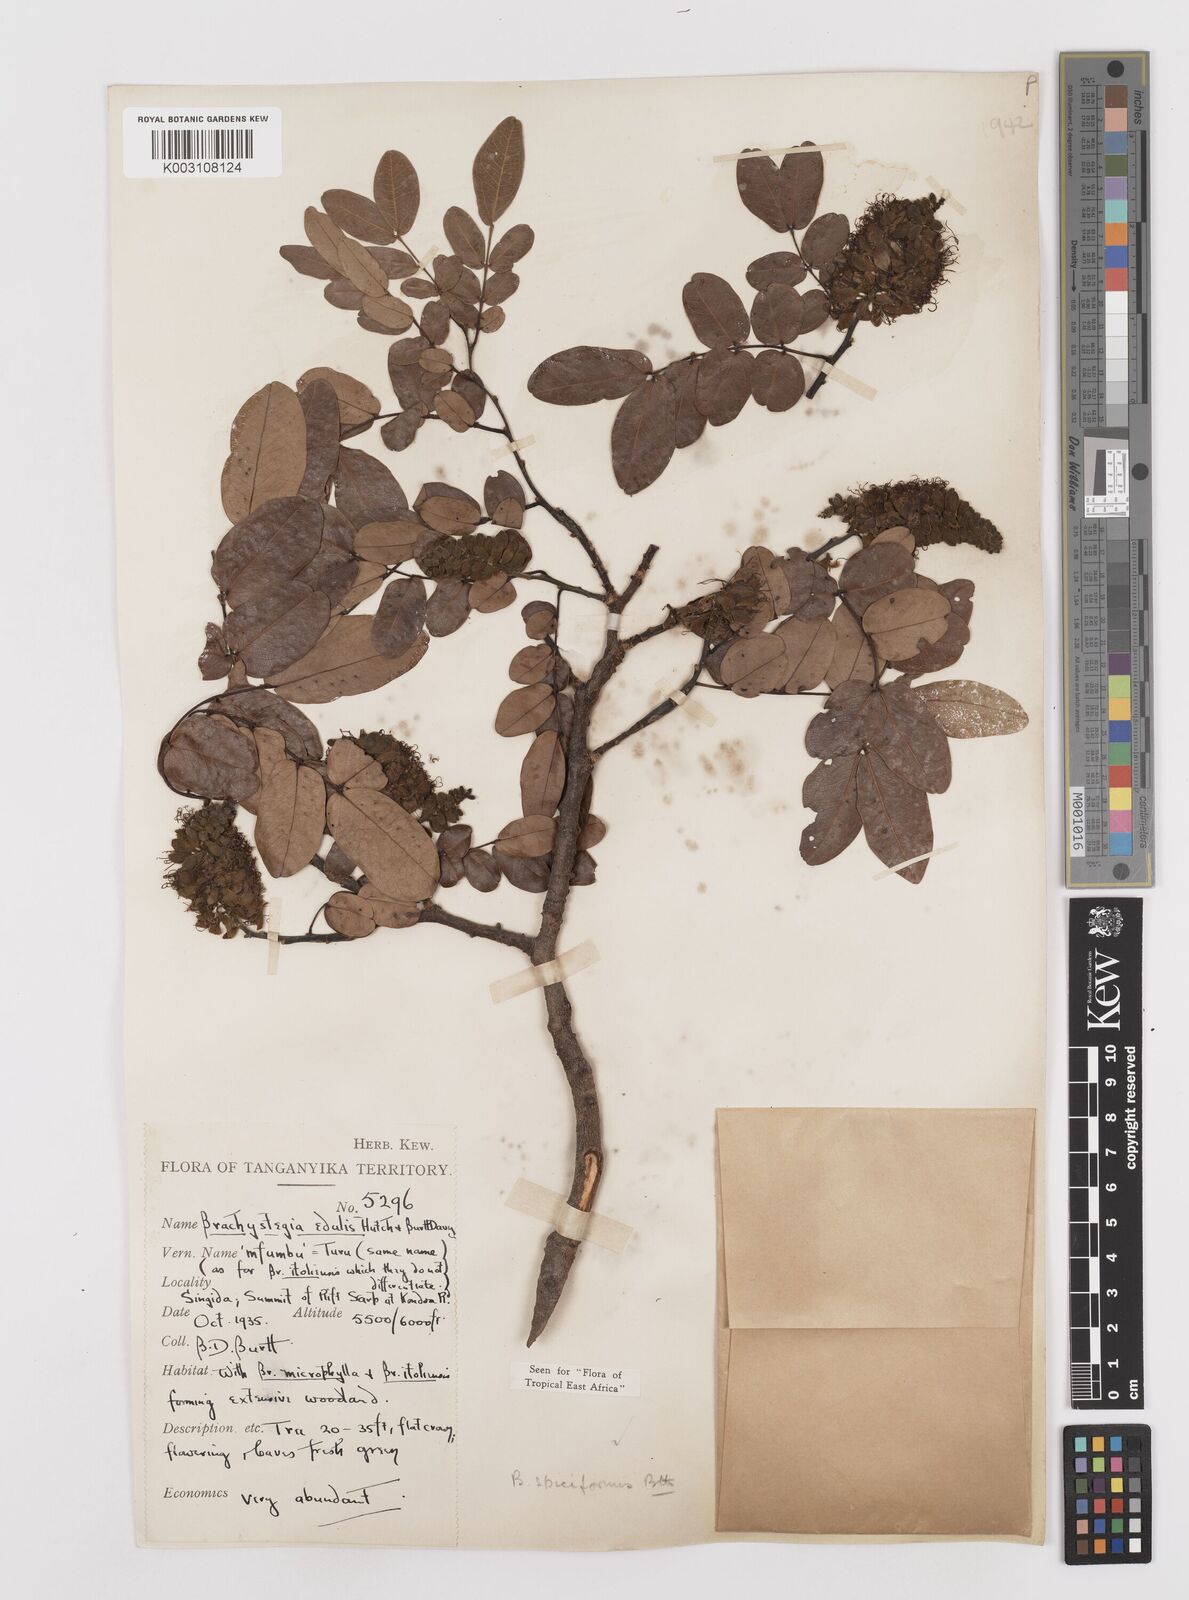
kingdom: Plantae
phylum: Tracheophyta
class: Magnoliopsida
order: Fabales
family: Fabaceae
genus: Brachystegia
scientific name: Brachystegia spiciformis
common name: Zebrawood
